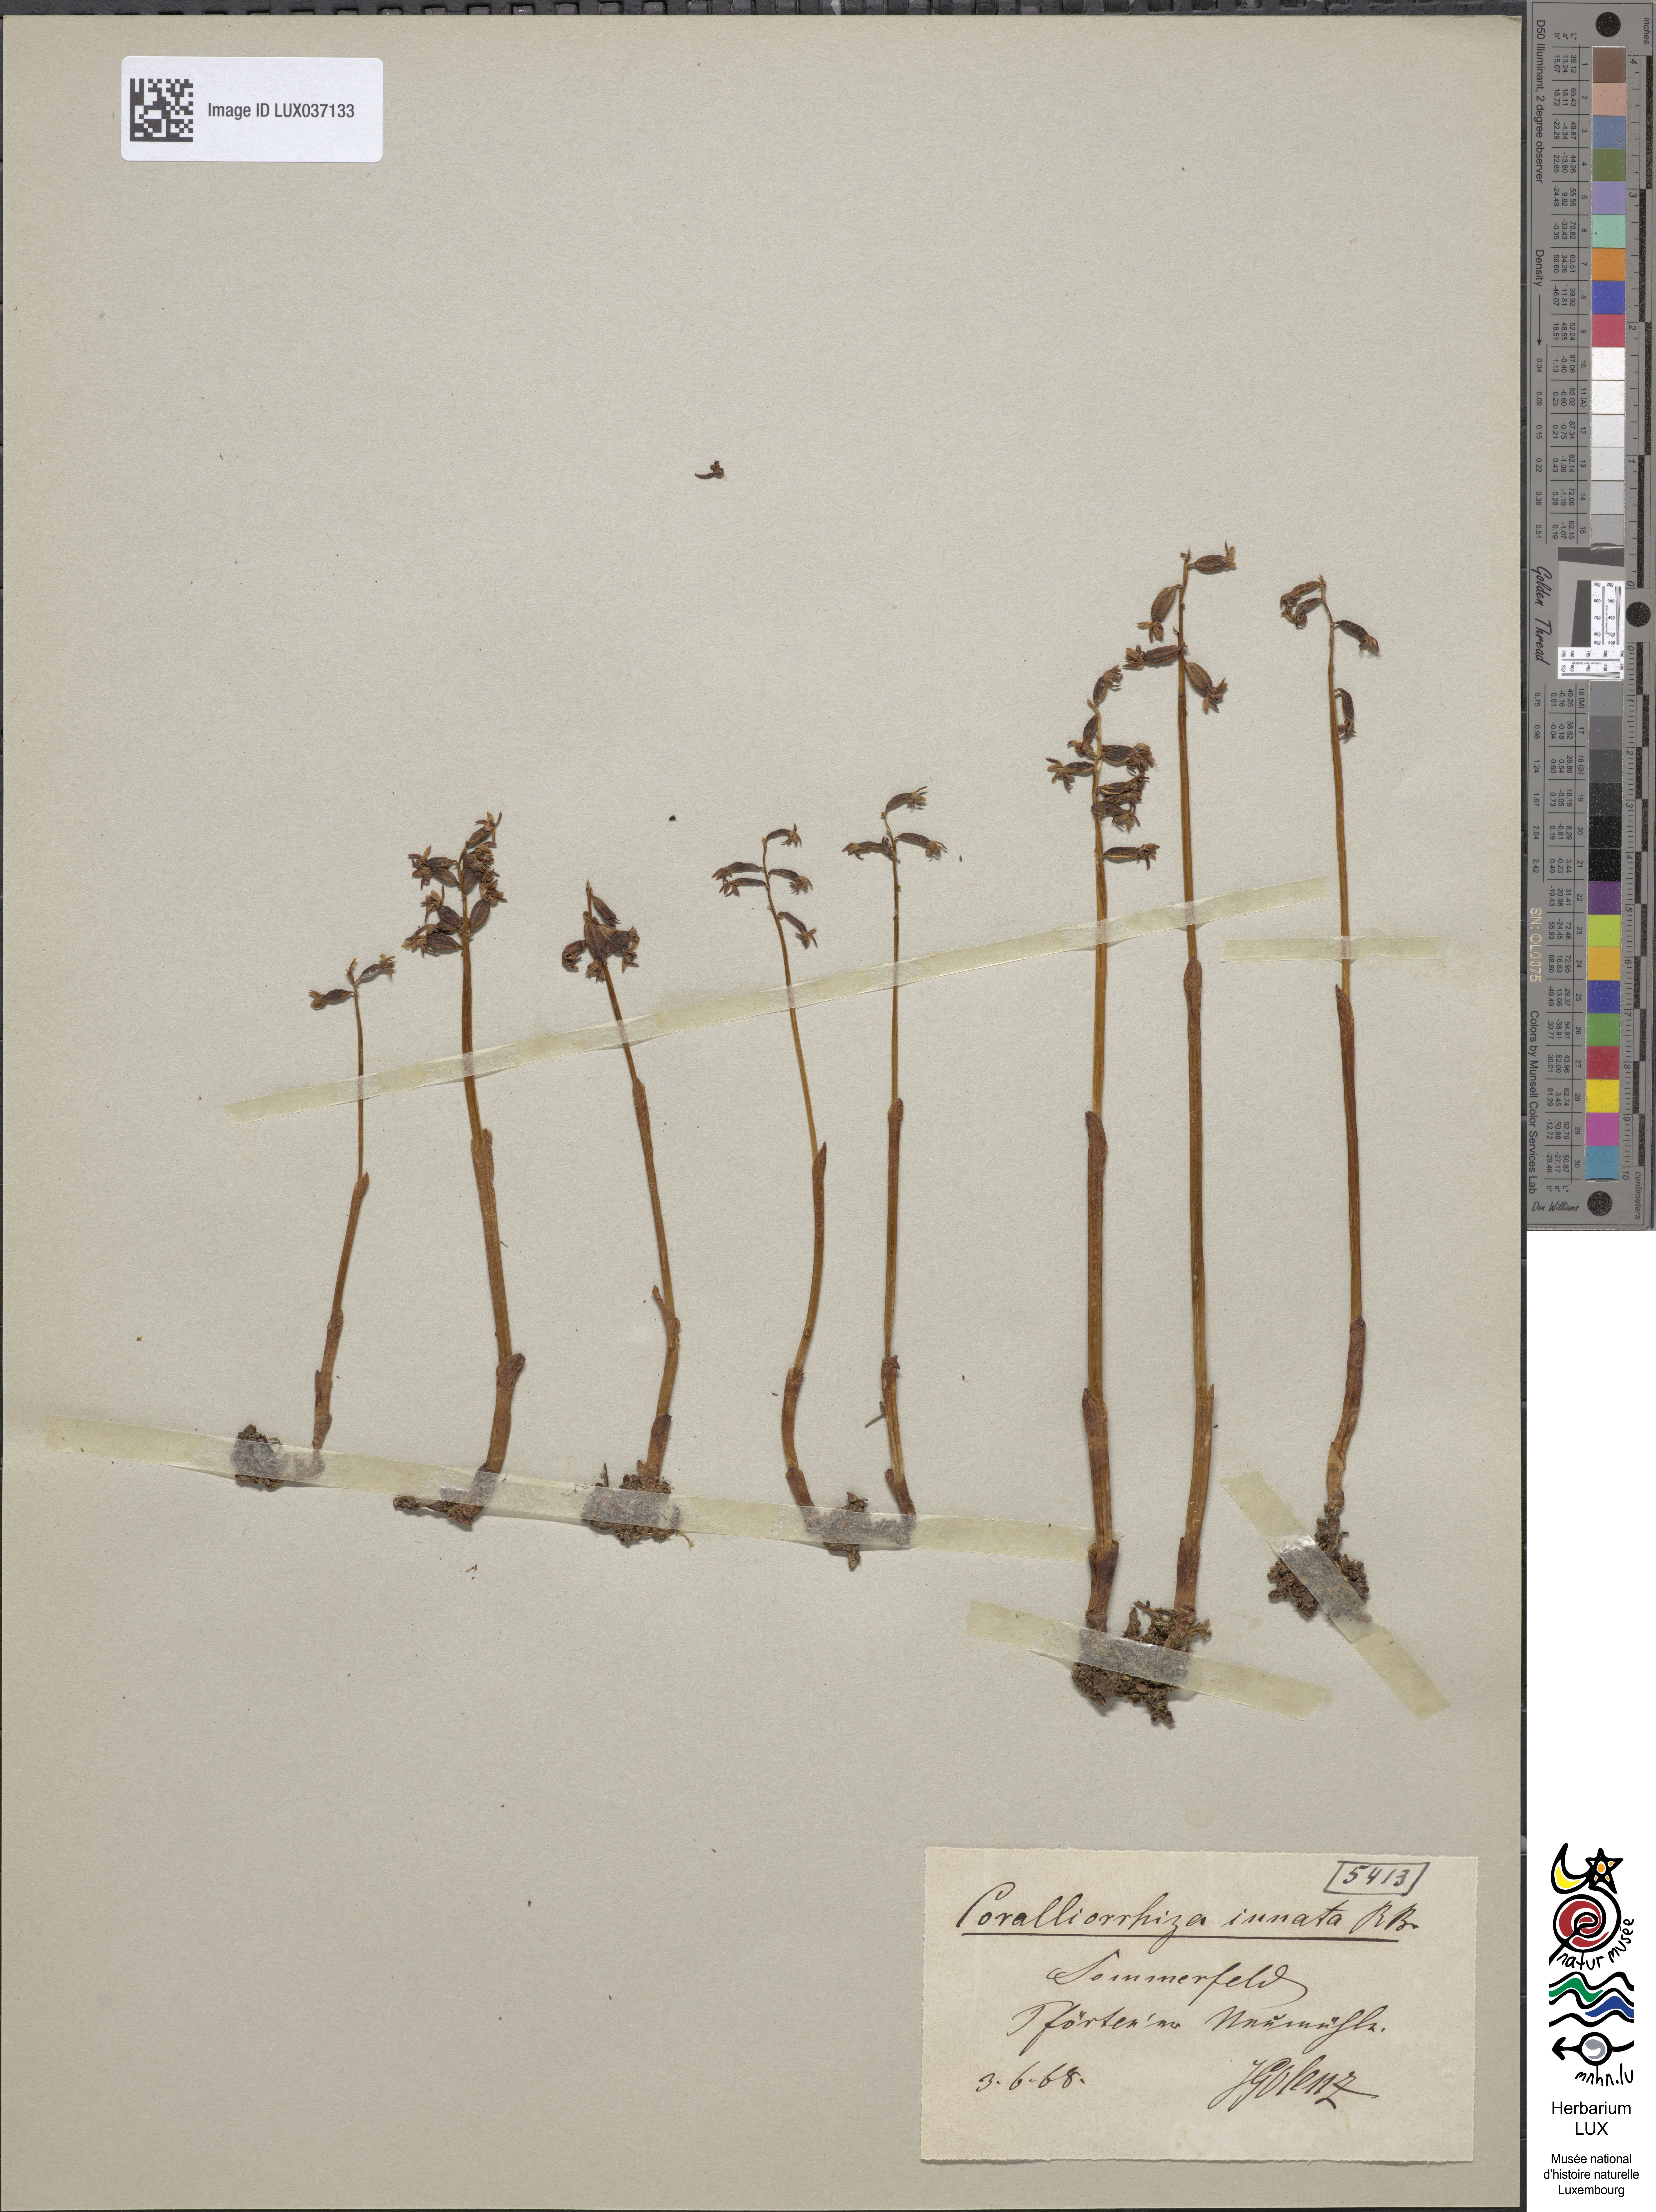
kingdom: Plantae
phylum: Tracheophyta
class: Liliopsida
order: Asparagales
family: Orchidaceae
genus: Corallorhiza
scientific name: Corallorhiza trifida
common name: Yellow coralroot
